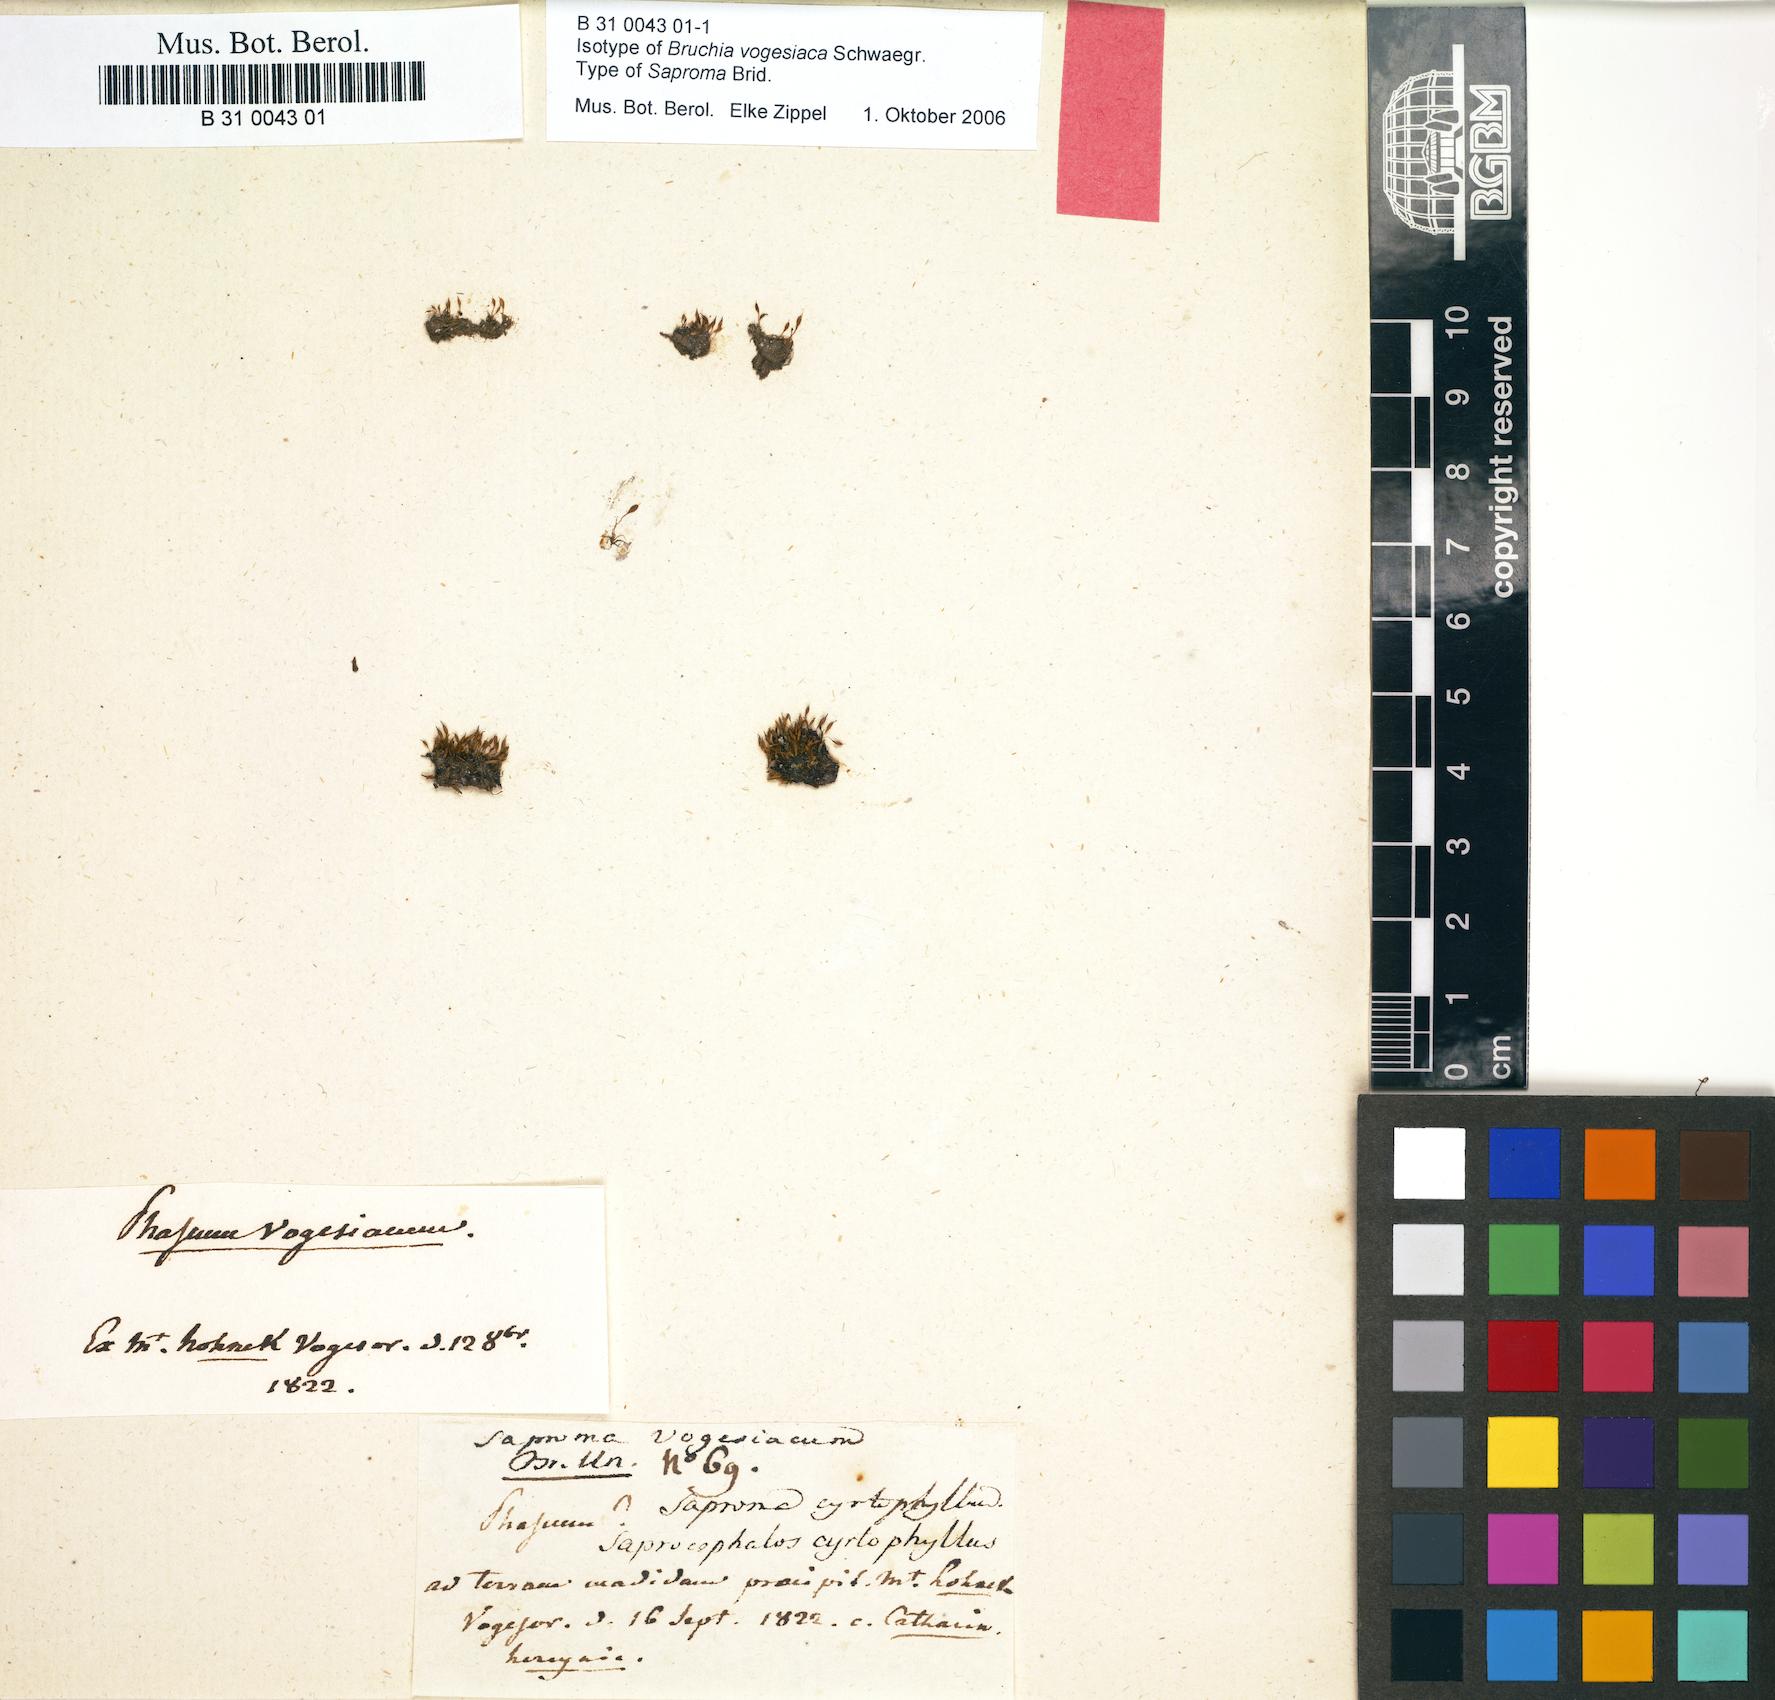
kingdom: Plantae
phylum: Bryophyta
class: Bryopsida
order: Dicranales
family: Bruchiaceae
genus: Bruchia
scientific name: Bruchia vogesiaca
